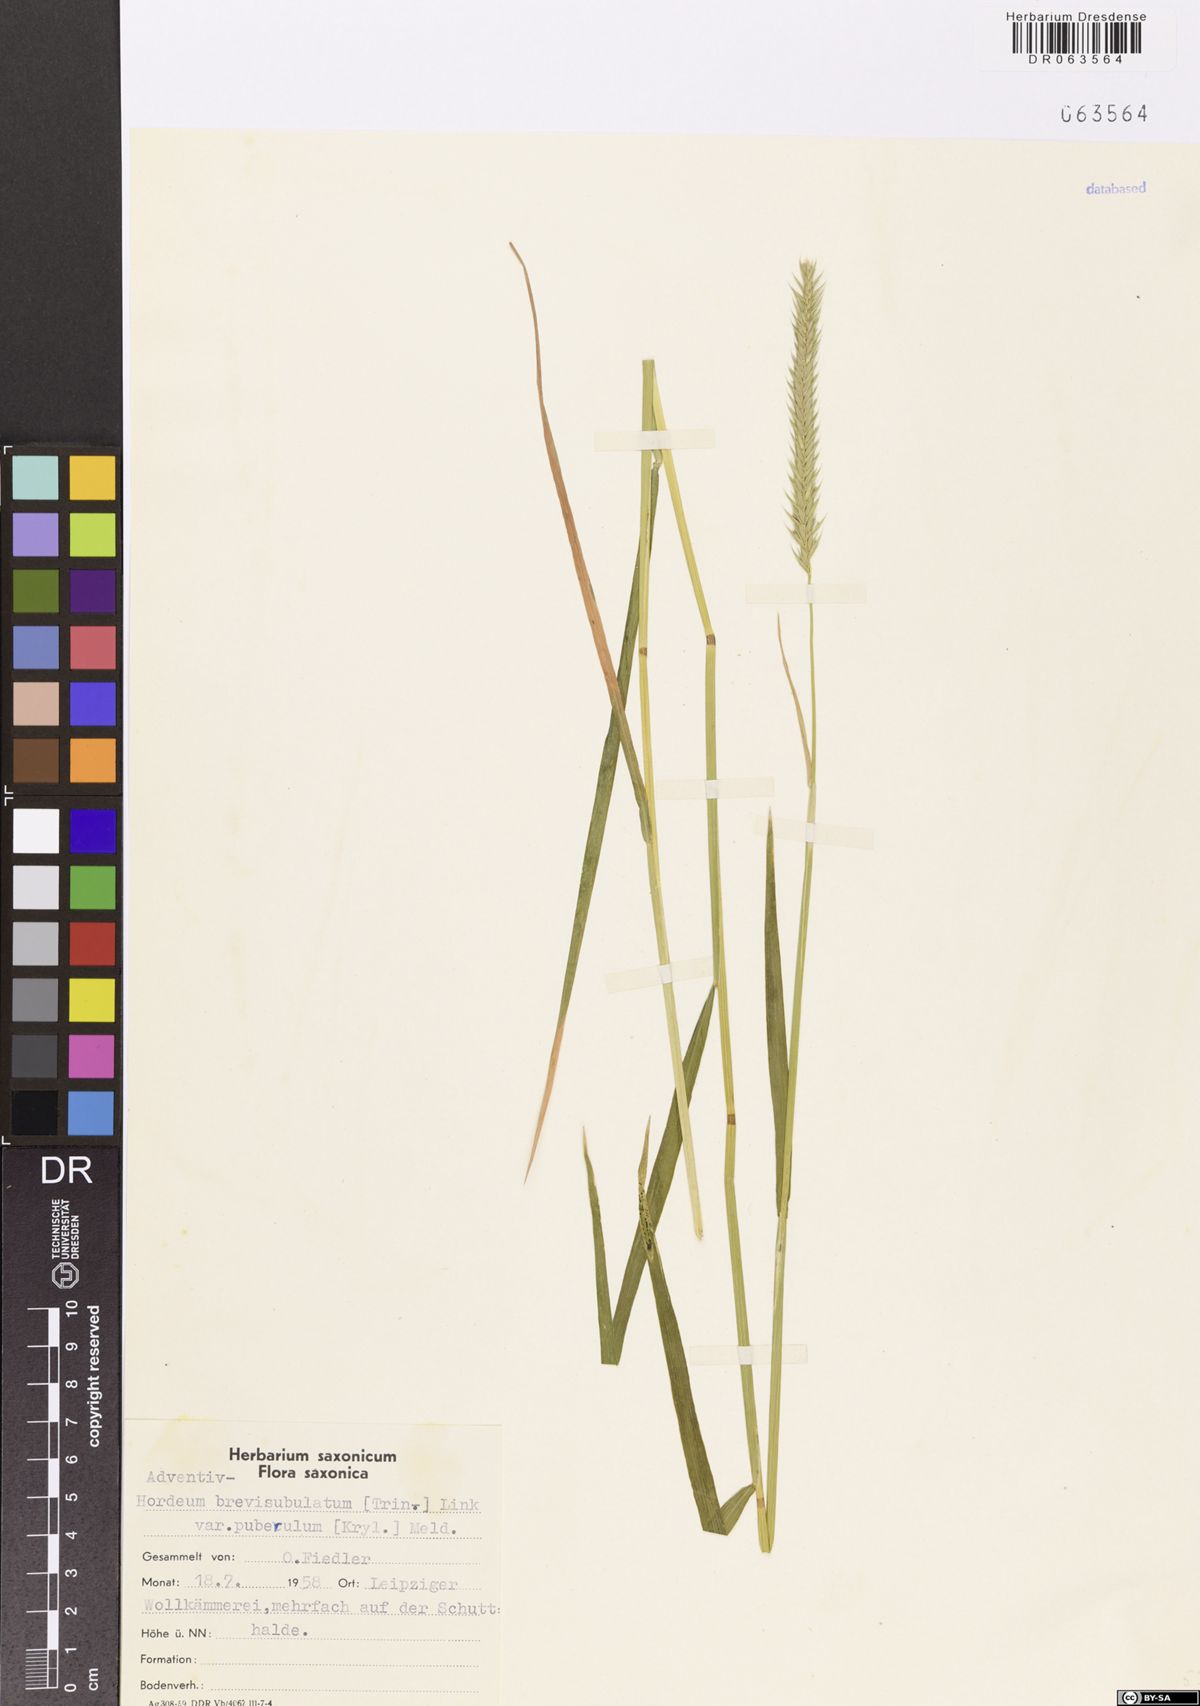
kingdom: Plantae
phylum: Tracheophyta
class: Liliopsida
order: Poales
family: Poaceae
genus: Hordeum
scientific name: Hordeum brevisubulatum
